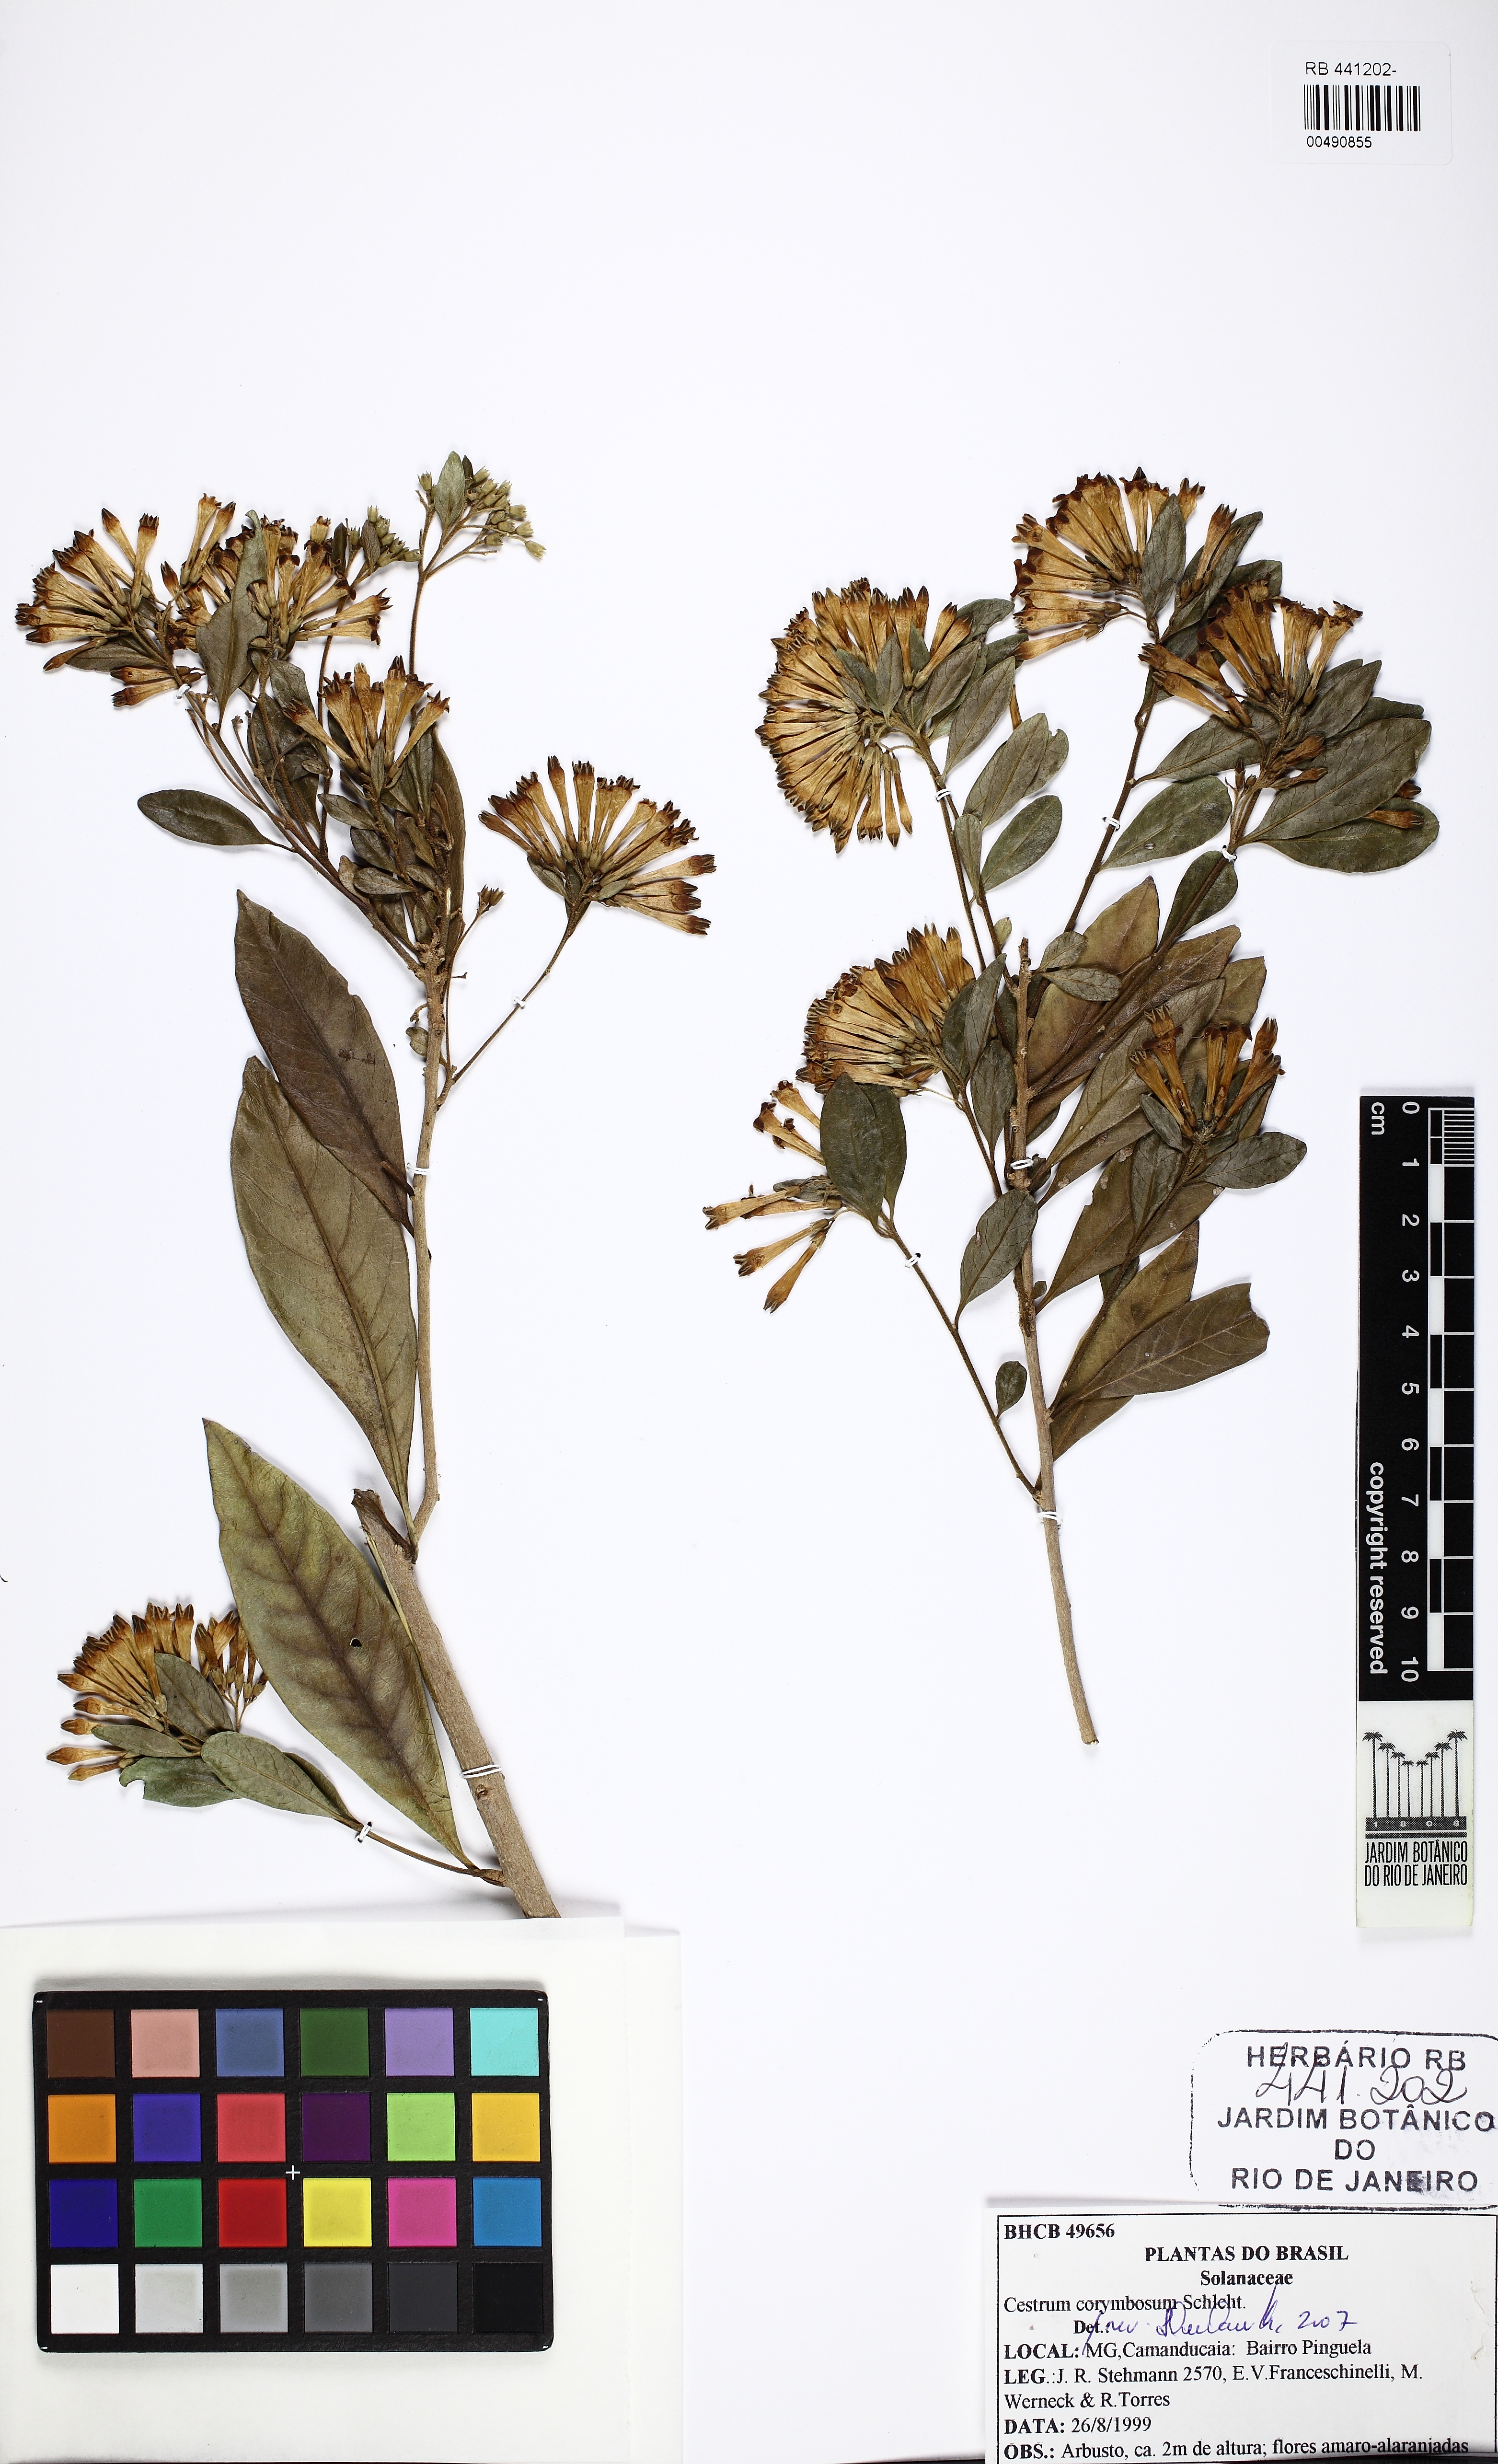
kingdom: Plantae
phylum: Tracheophyta
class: Magnoliopsida
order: Solanales
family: Solanaceae
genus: Cestrum
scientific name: Cestrum corymbosum
